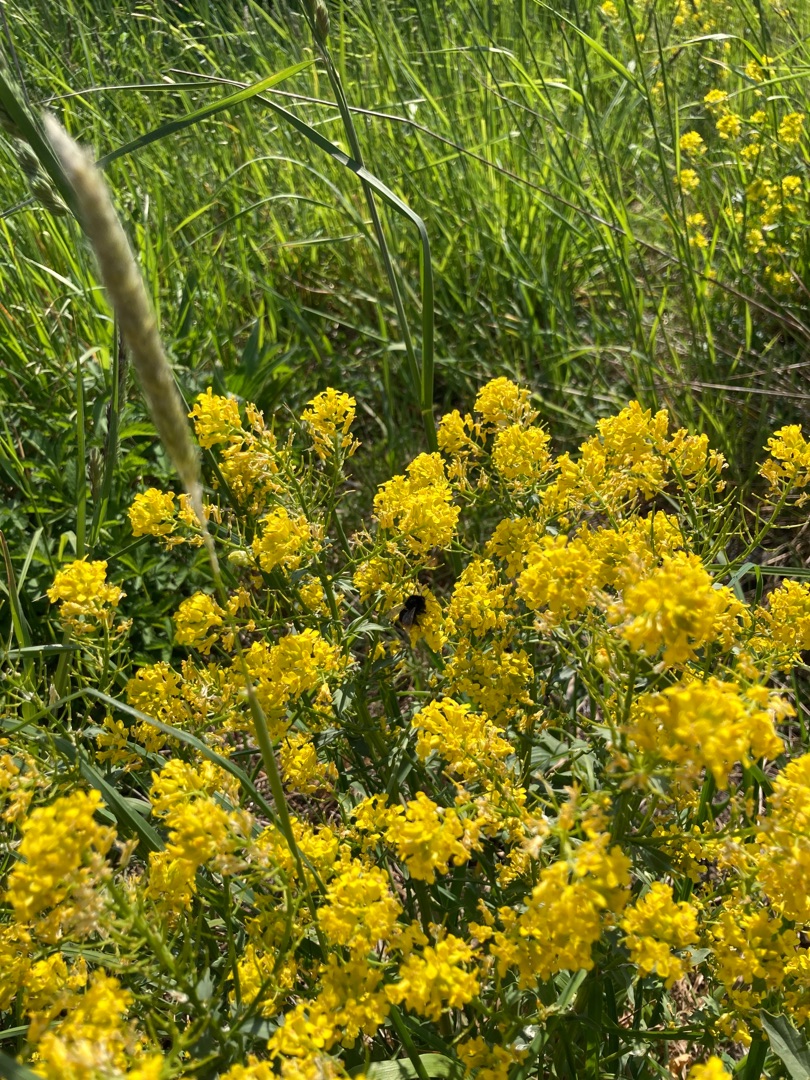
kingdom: Plantae
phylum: Tracheophyta
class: Magnoliopsida
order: Brassicales
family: Brassicaceae
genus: Barbarea
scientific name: Barbarea vulgaris
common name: Udspærret vinterkarse
